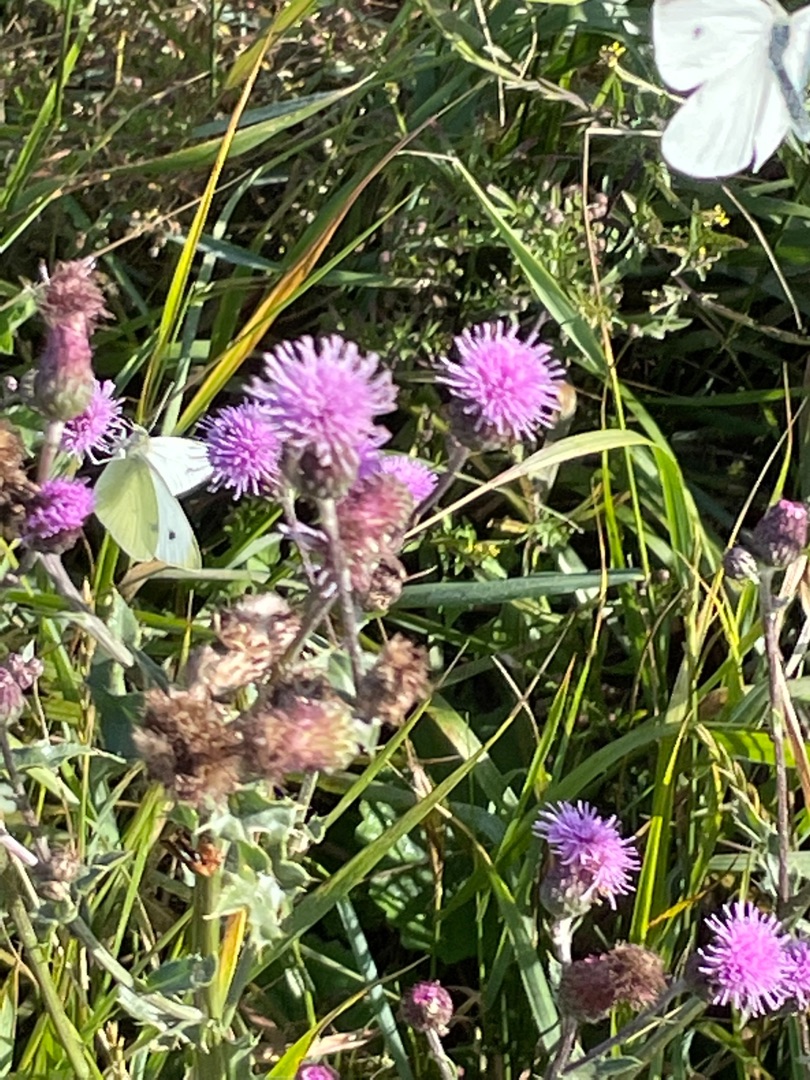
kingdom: Animalia
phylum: Arthropoda
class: Insecta
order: Lepidoptera
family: Pieridae
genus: Pieris
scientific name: Pieris rapae
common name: Lille kålsommerfugl
